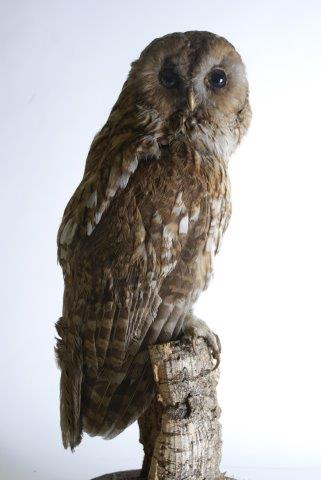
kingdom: Animalia
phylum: Chordata
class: Aves
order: Strigiformes
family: Strigidae
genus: Strix
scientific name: Strix aluco
